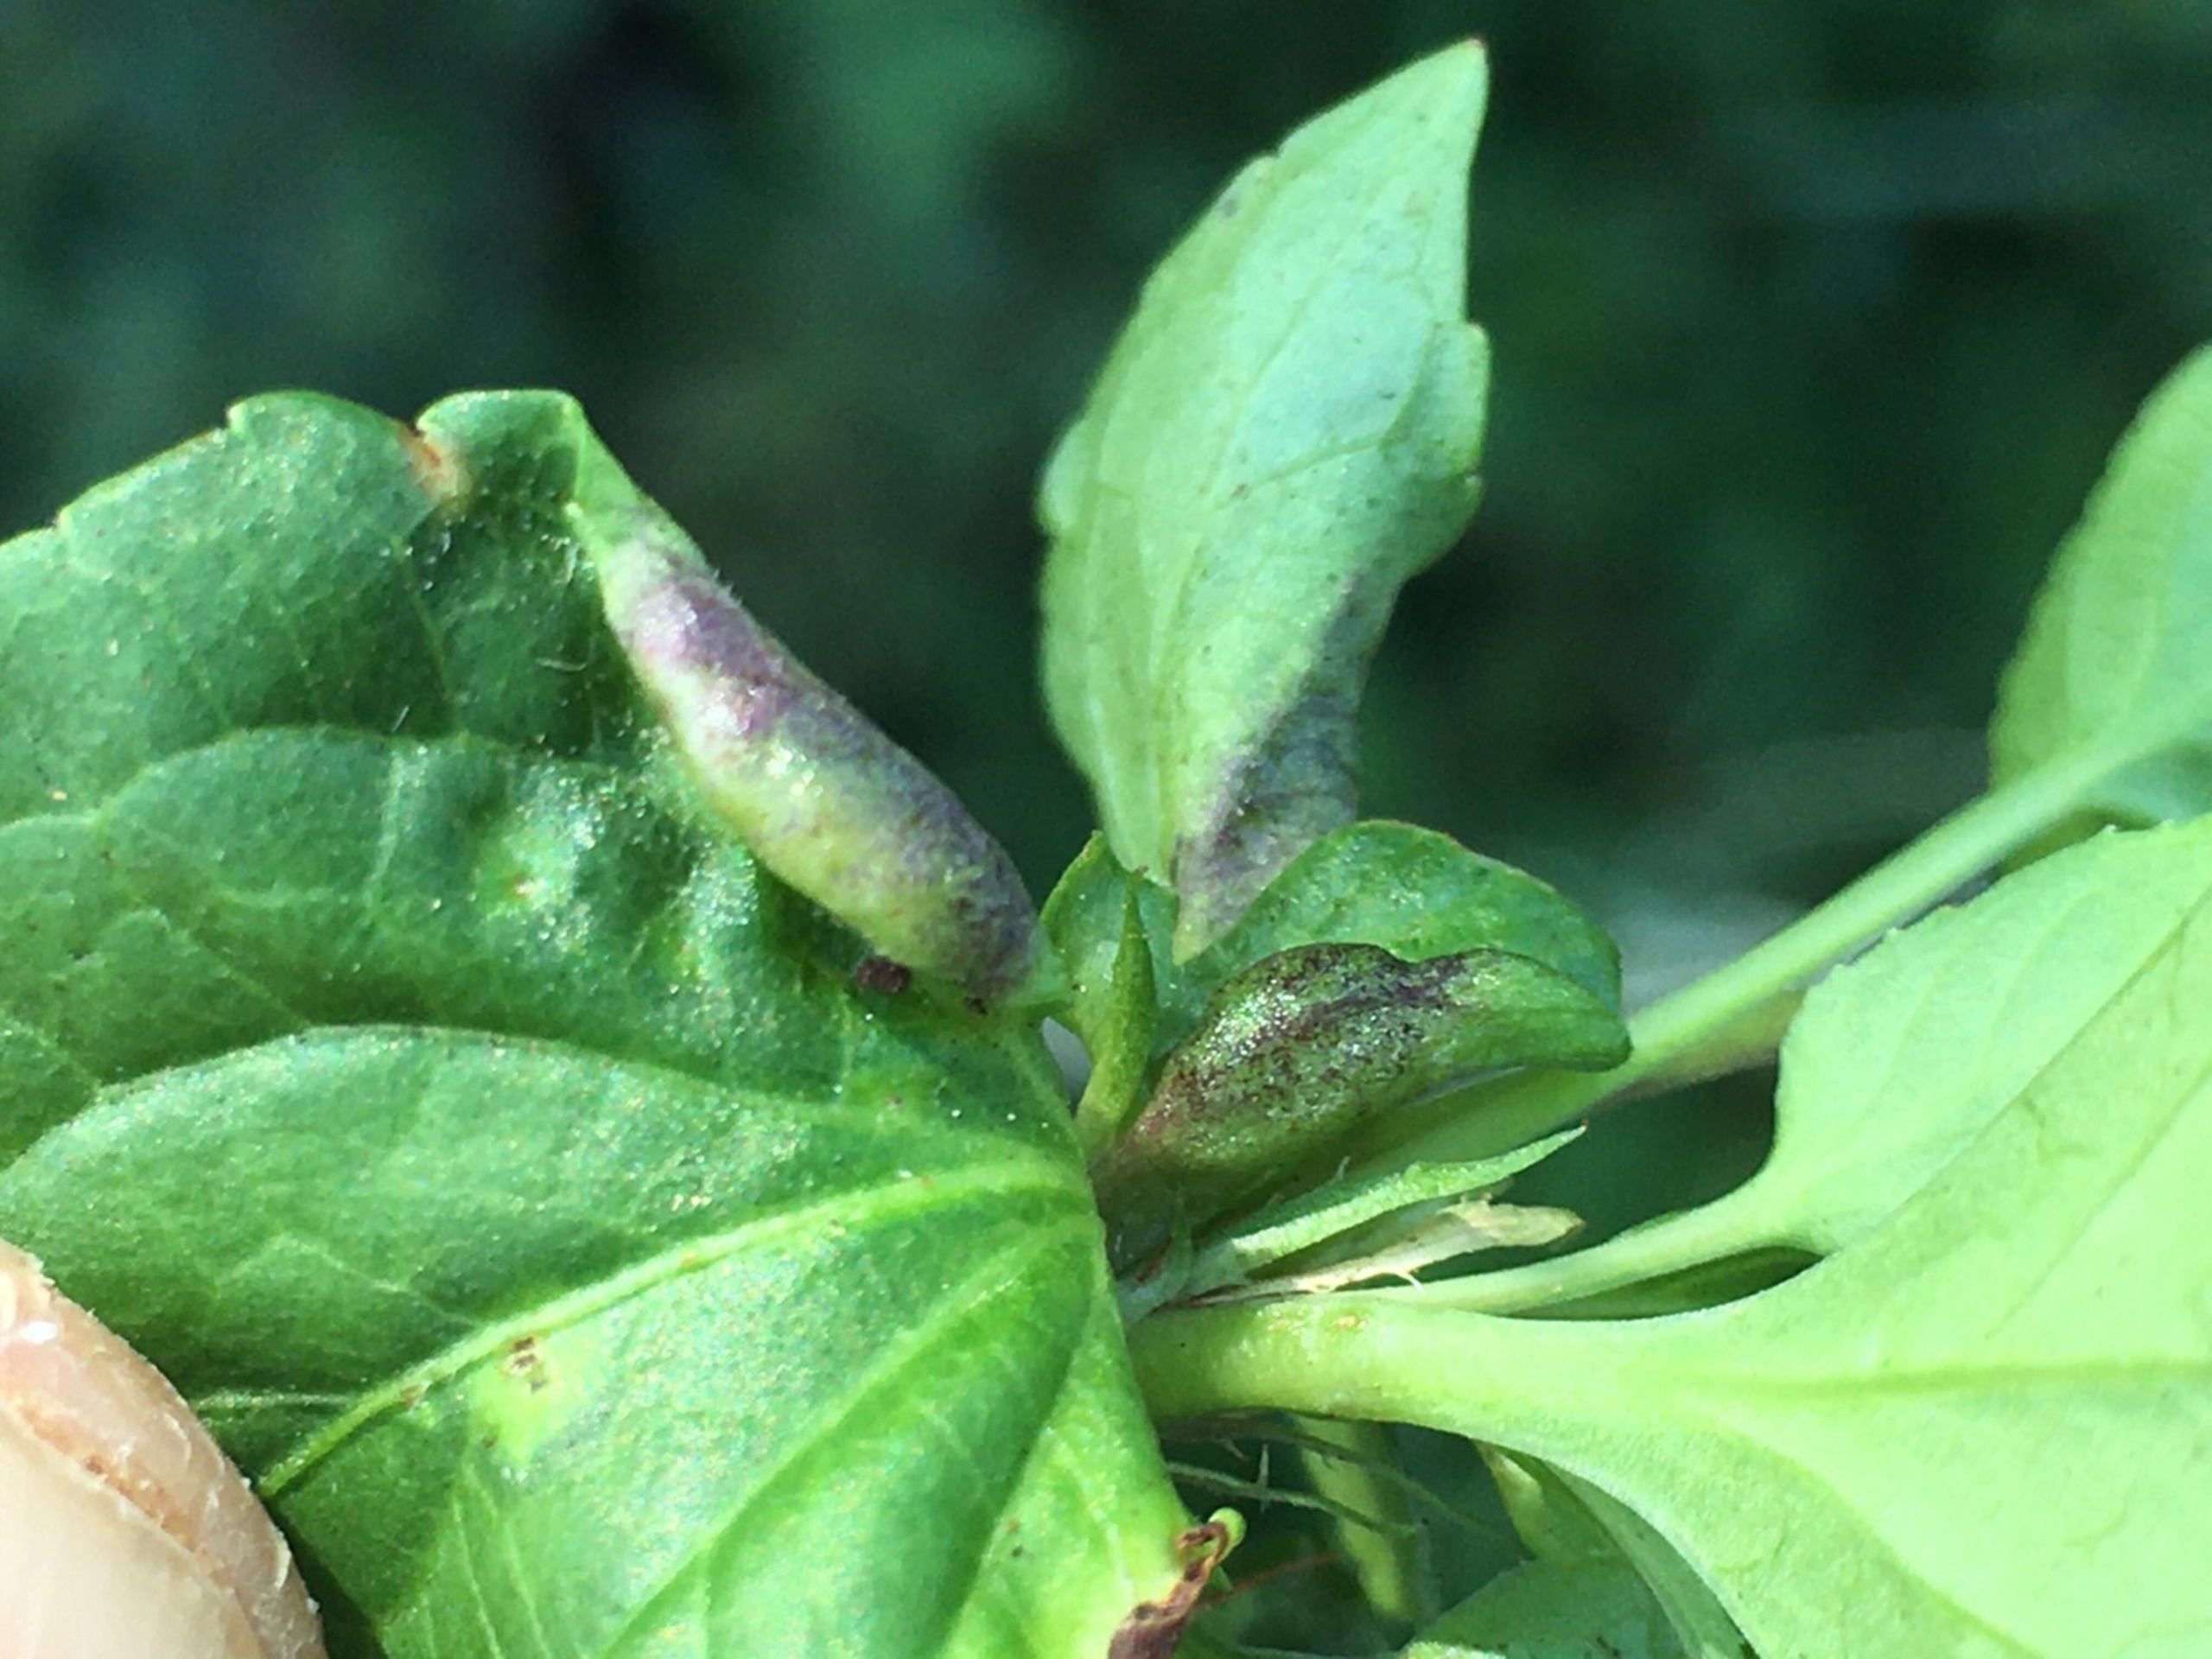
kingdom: Animalia
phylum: Arthropoda
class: Insecta
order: Diptera
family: Cecidomyiidae
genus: Dasineura
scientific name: Dasineura affinis
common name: Violgalmyg
